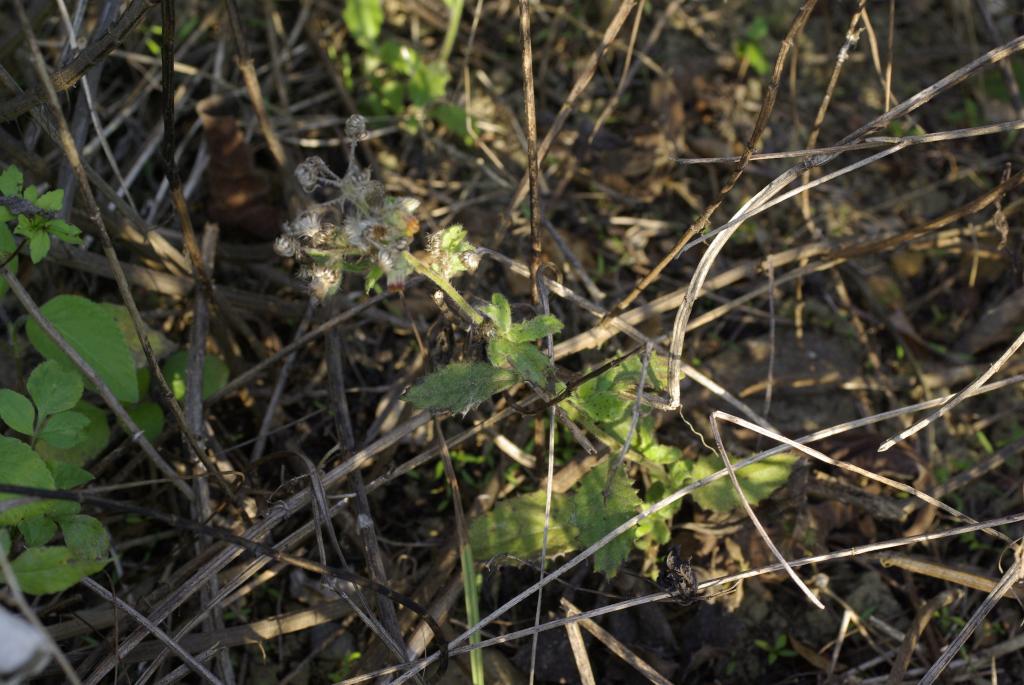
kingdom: Plantae
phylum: Tracheophyta
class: Magnoliopsida
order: Asterales
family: Asteraceae
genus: Blumea
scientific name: Blumea lacera
